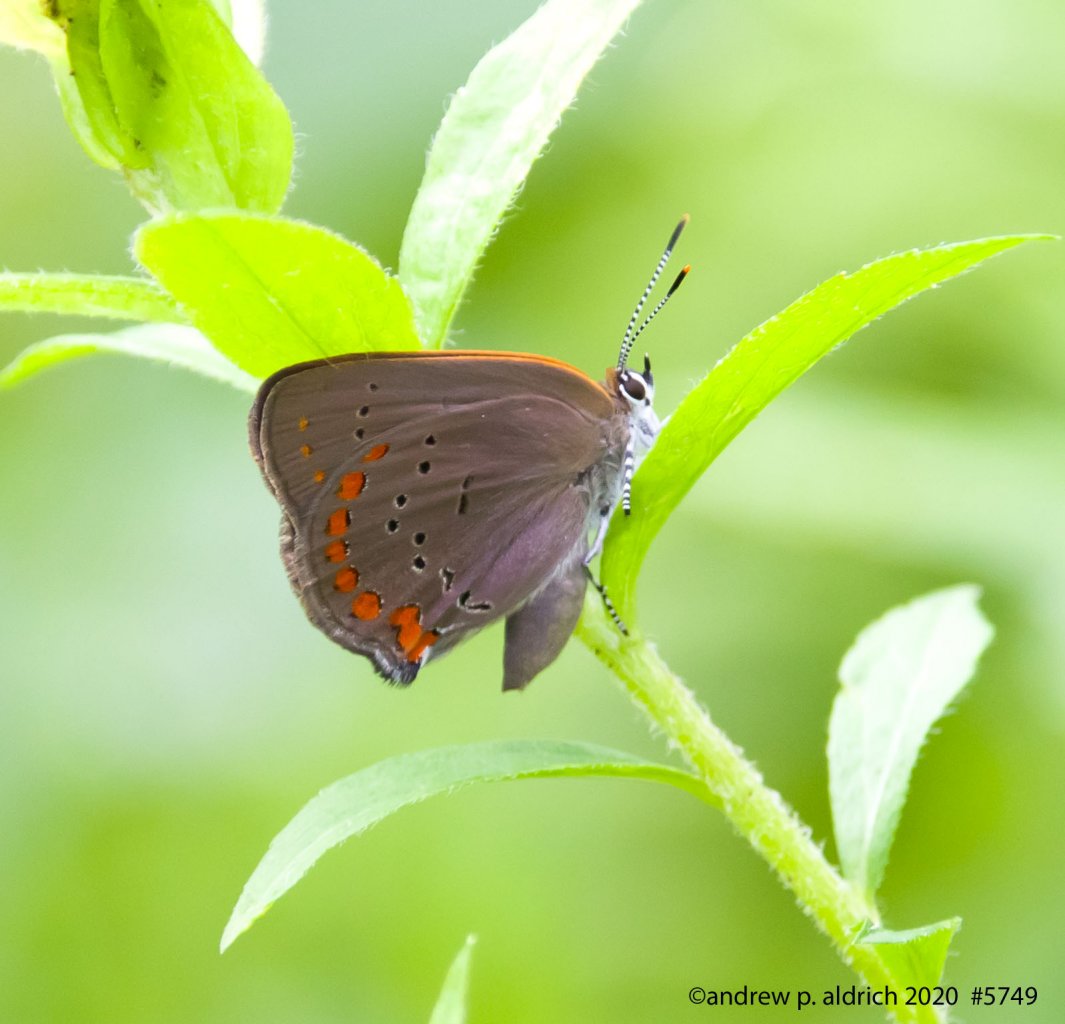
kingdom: Animalia
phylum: Arthropoda
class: Insecta
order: Lepidoptera
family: Lycaenidae
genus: Harkenclenus
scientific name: Harkenclenus titus
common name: Coral Hairstreak
